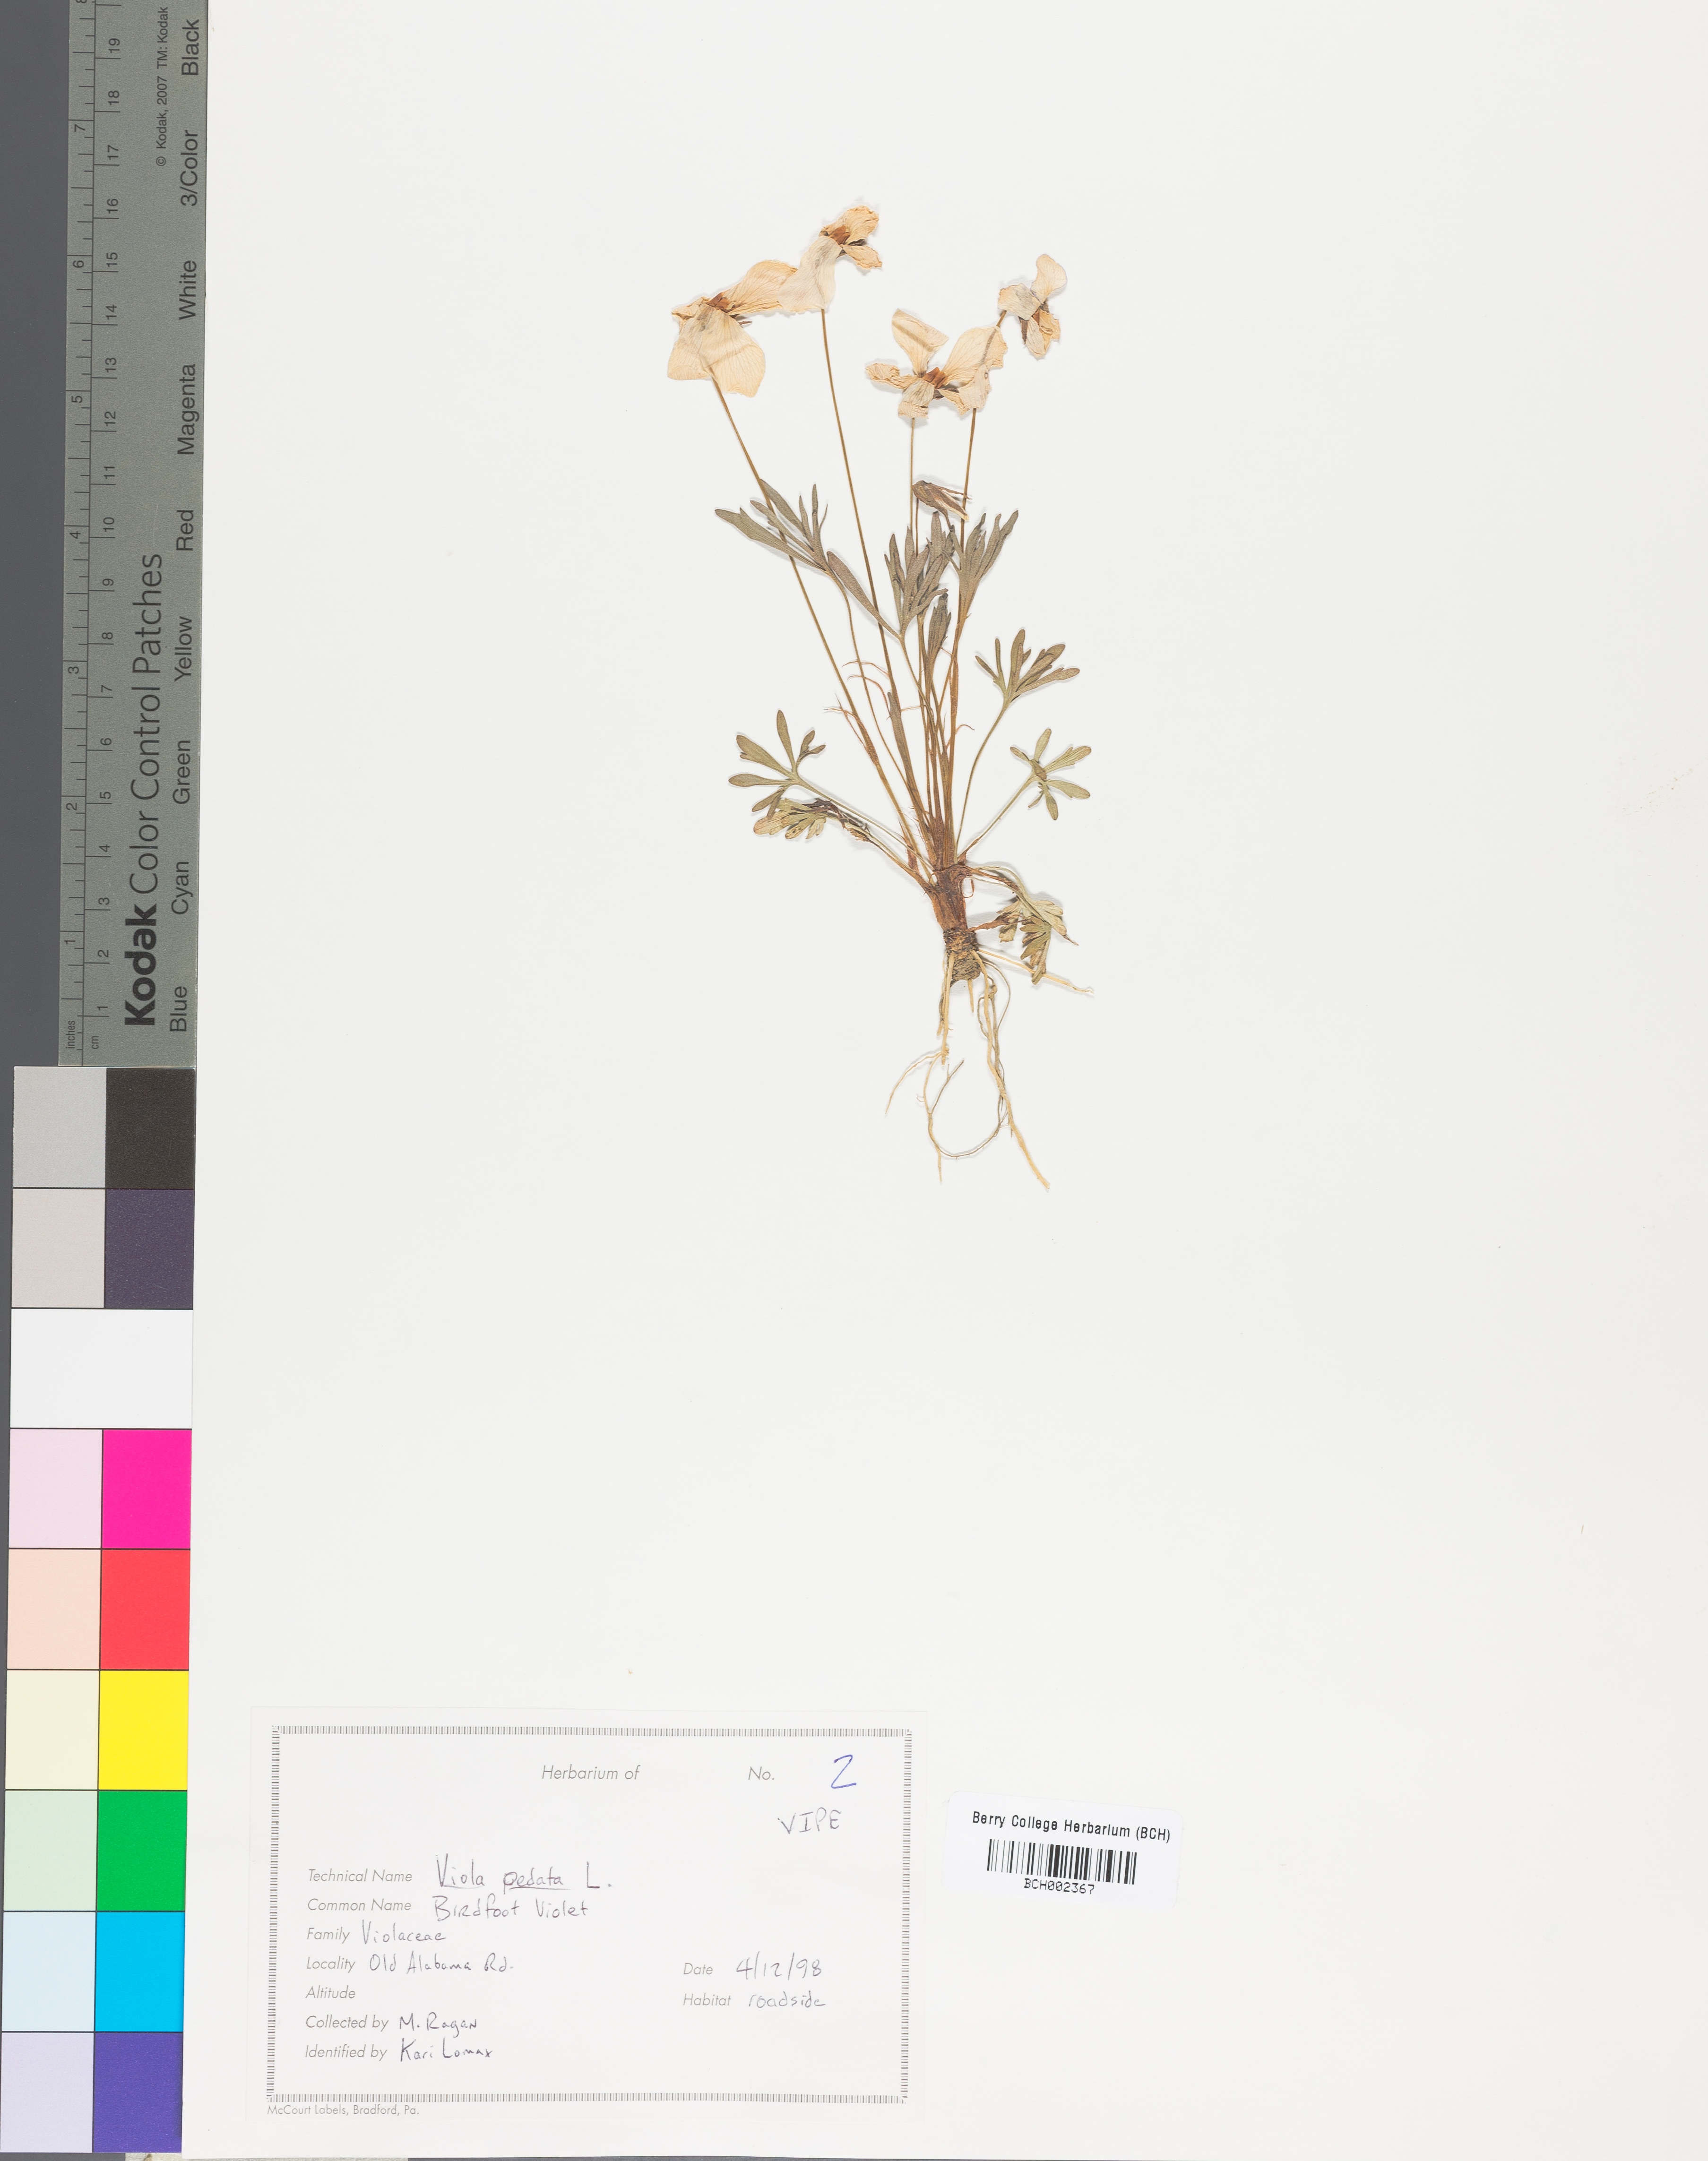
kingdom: Plantae
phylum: Tracheophyta
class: Magnoliopsida
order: Malpighiales
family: Violaceae
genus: Viola
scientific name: Viola pedata
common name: Pansy violet
